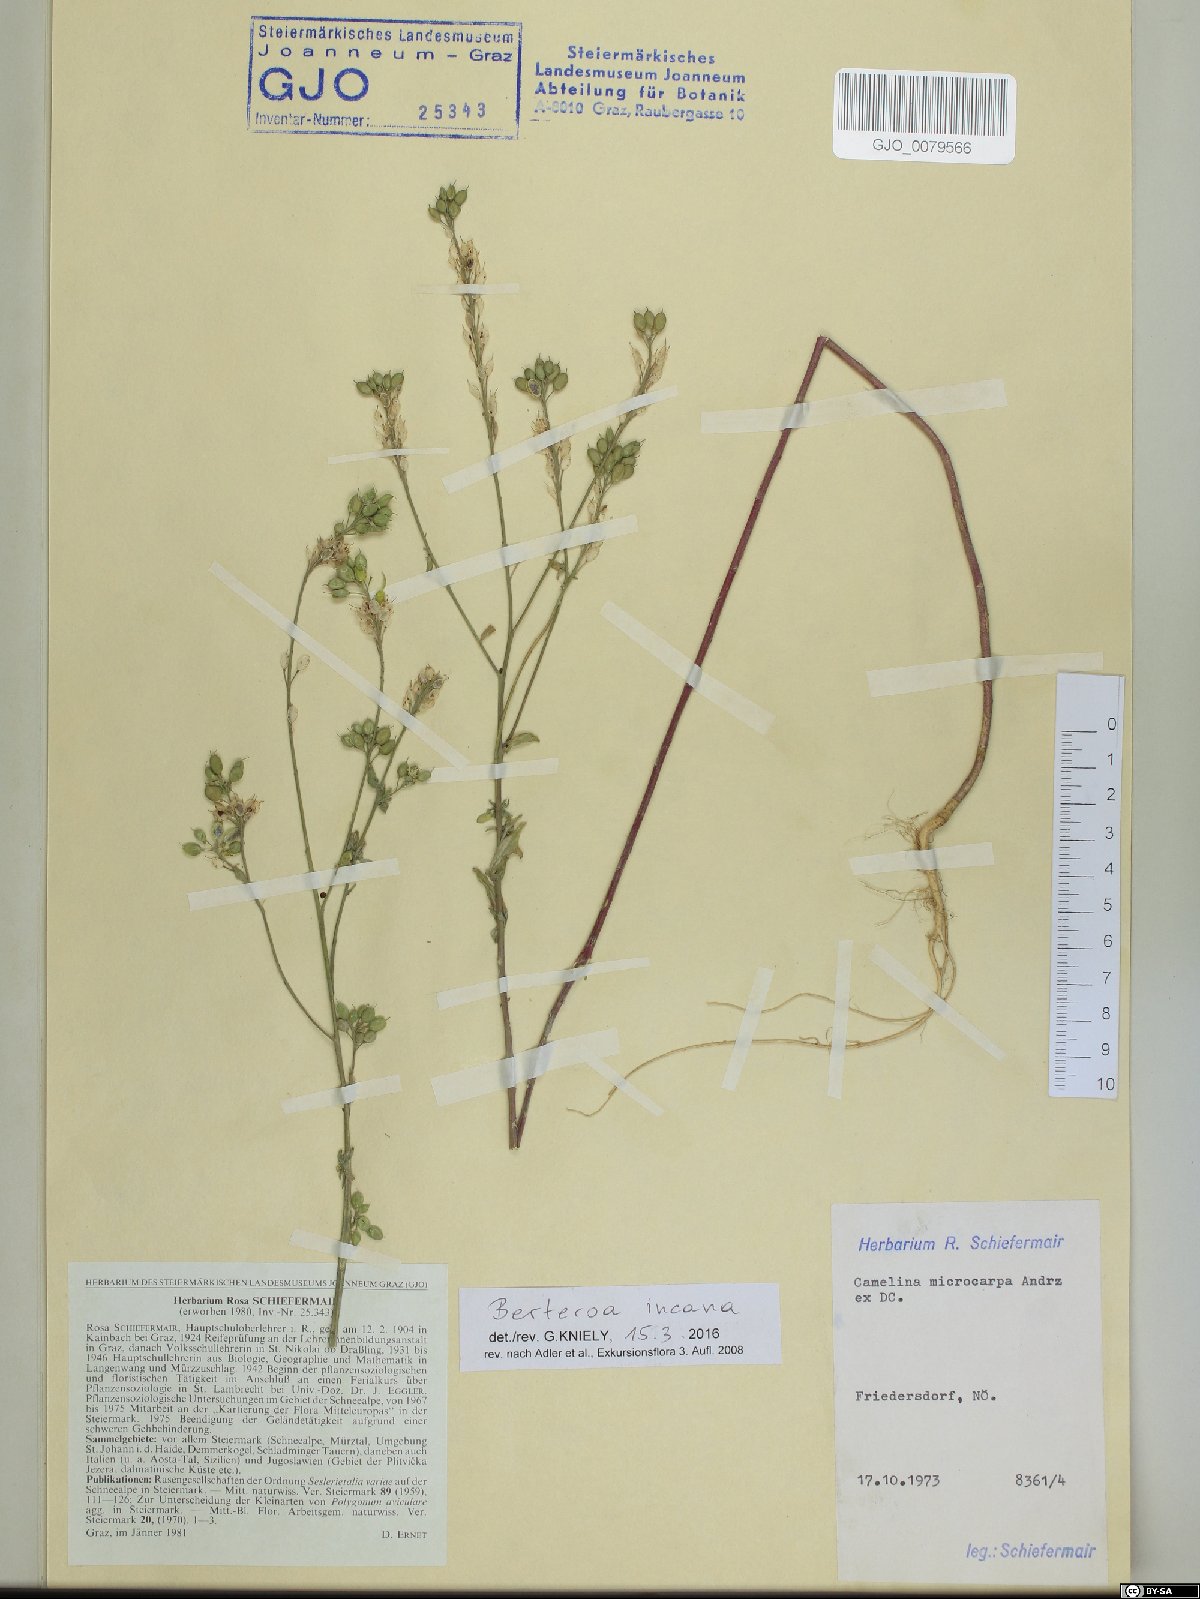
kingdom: Plantae
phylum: Tracheophyta
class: Magnoliopsida
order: Brassicales
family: Brassicaceae
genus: Berteroa
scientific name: Berteroa incana
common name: Hoary alison
